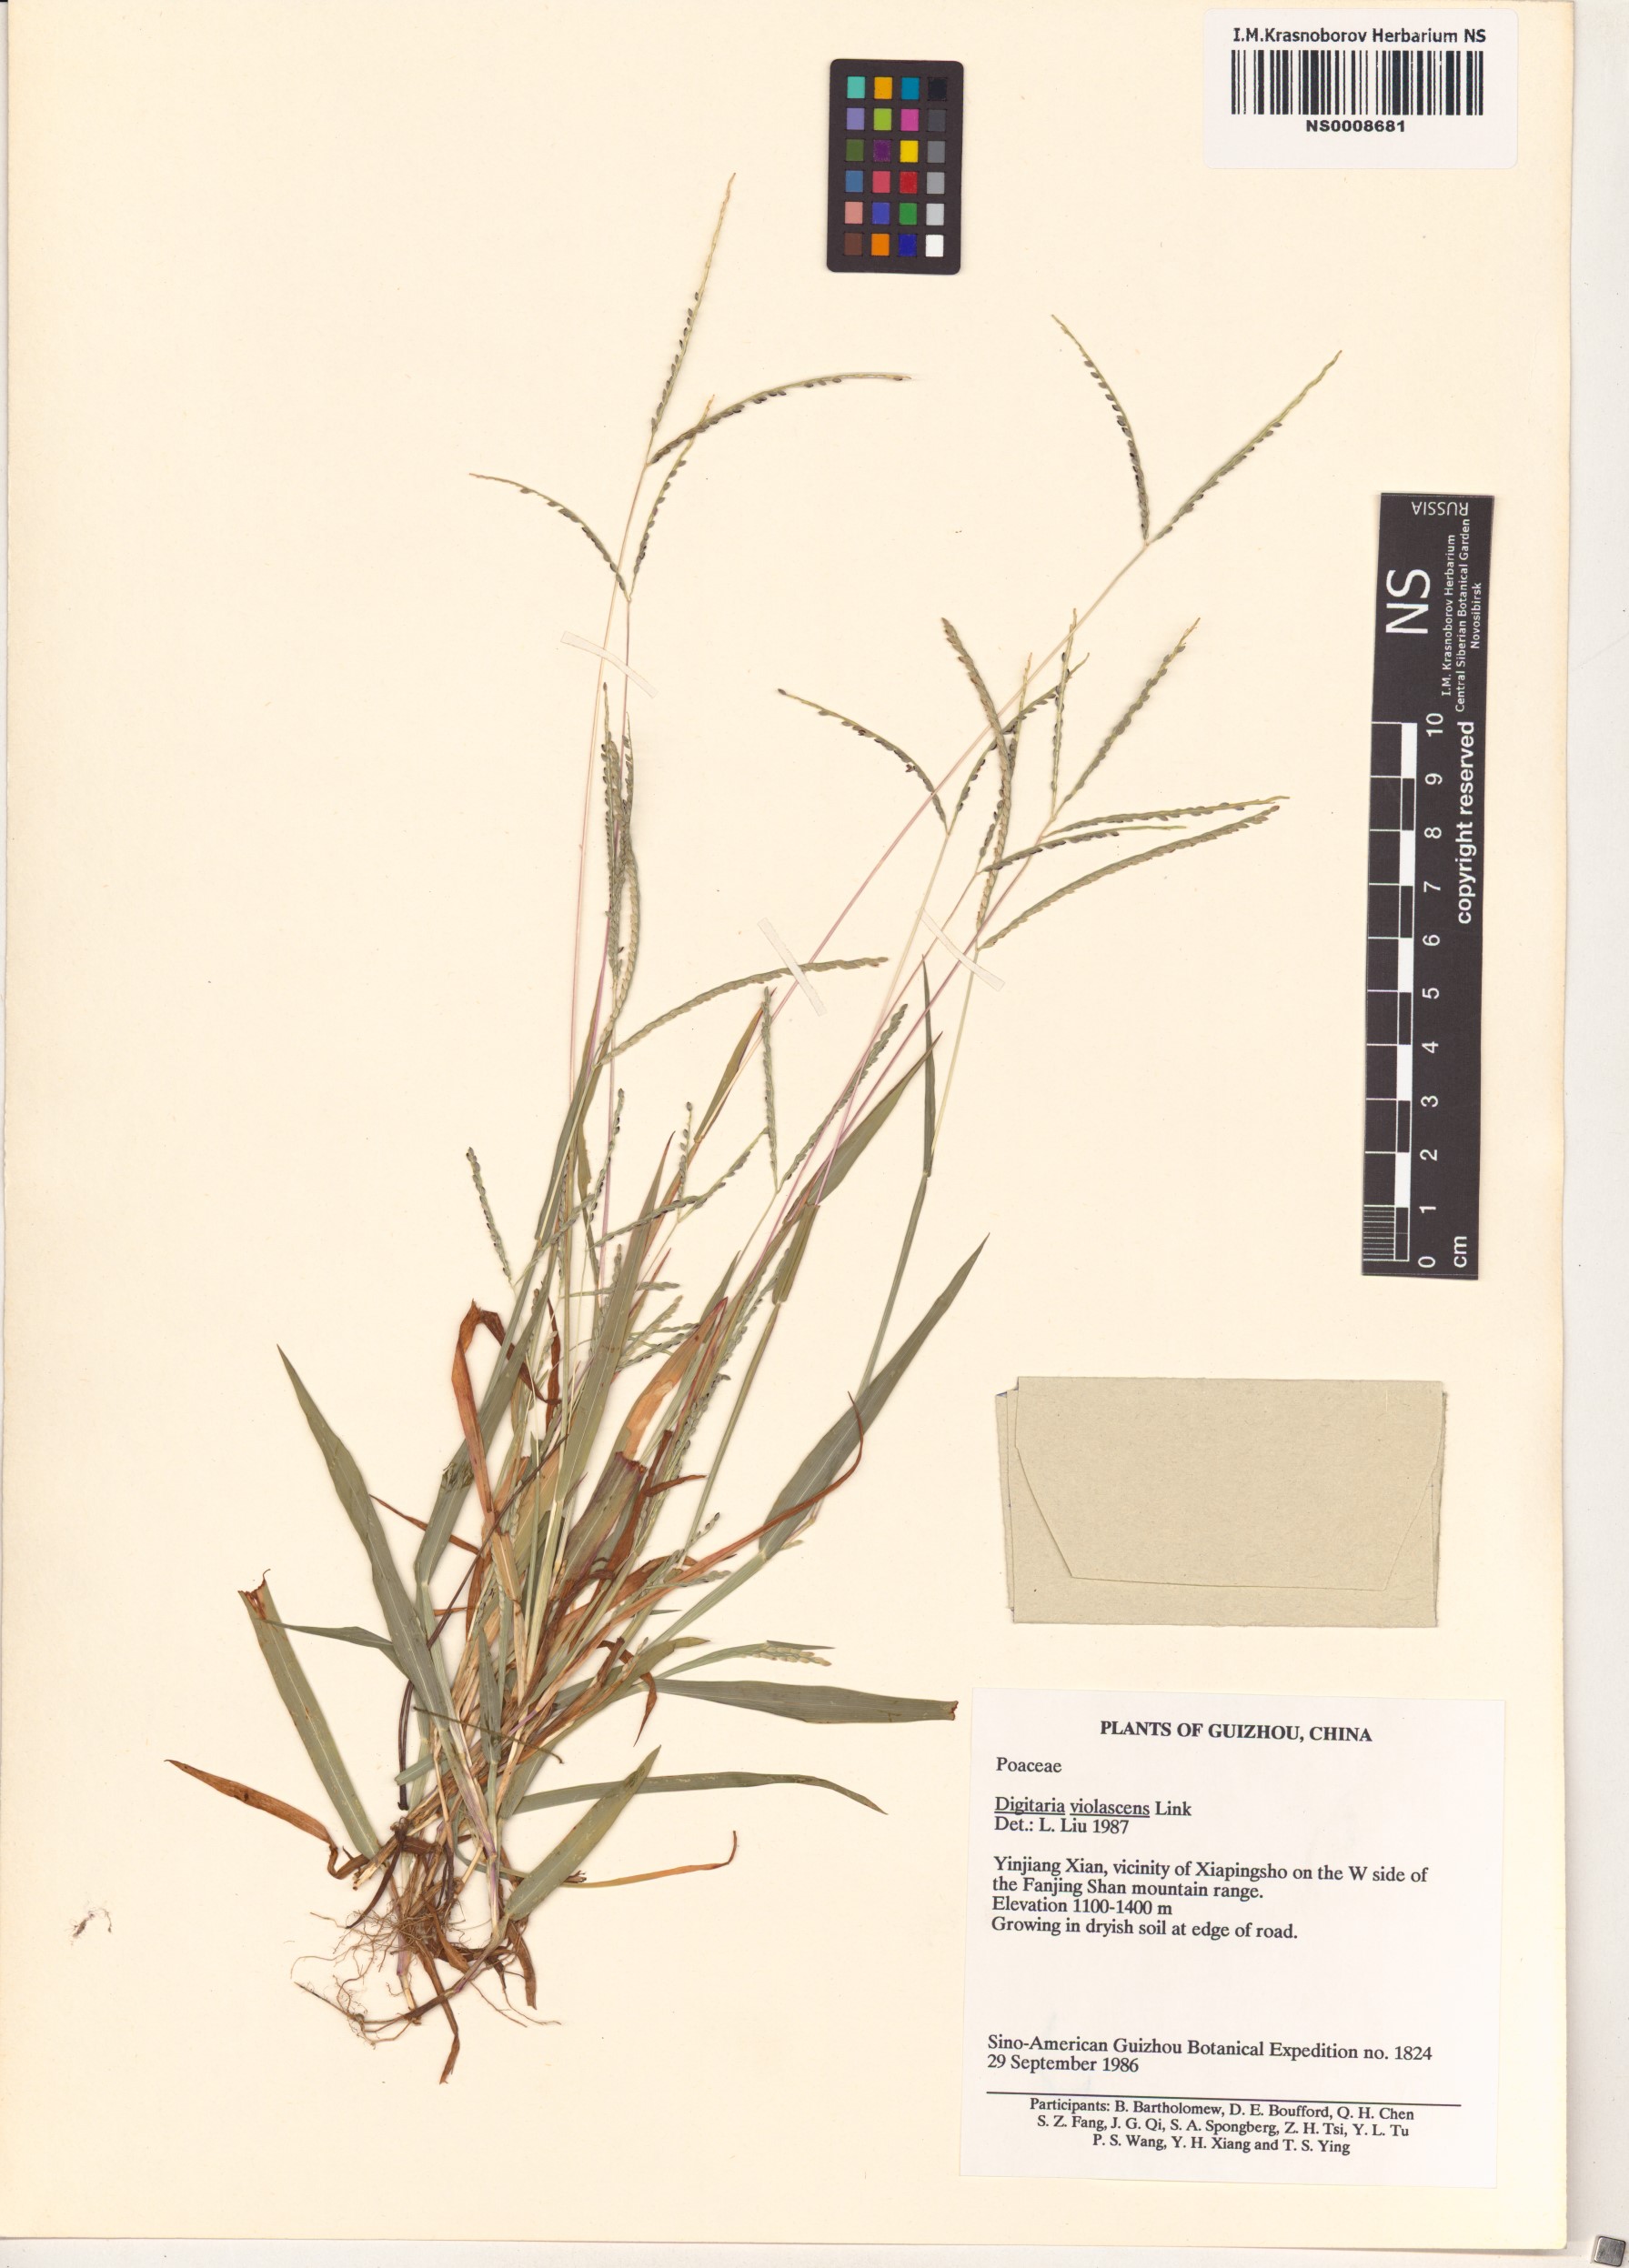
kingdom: Plantae
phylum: Tracheophyta
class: Liliopsida
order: Poales
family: Poaceae
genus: Digitaria
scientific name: Digitaria violascens
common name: Violet crabgrass
